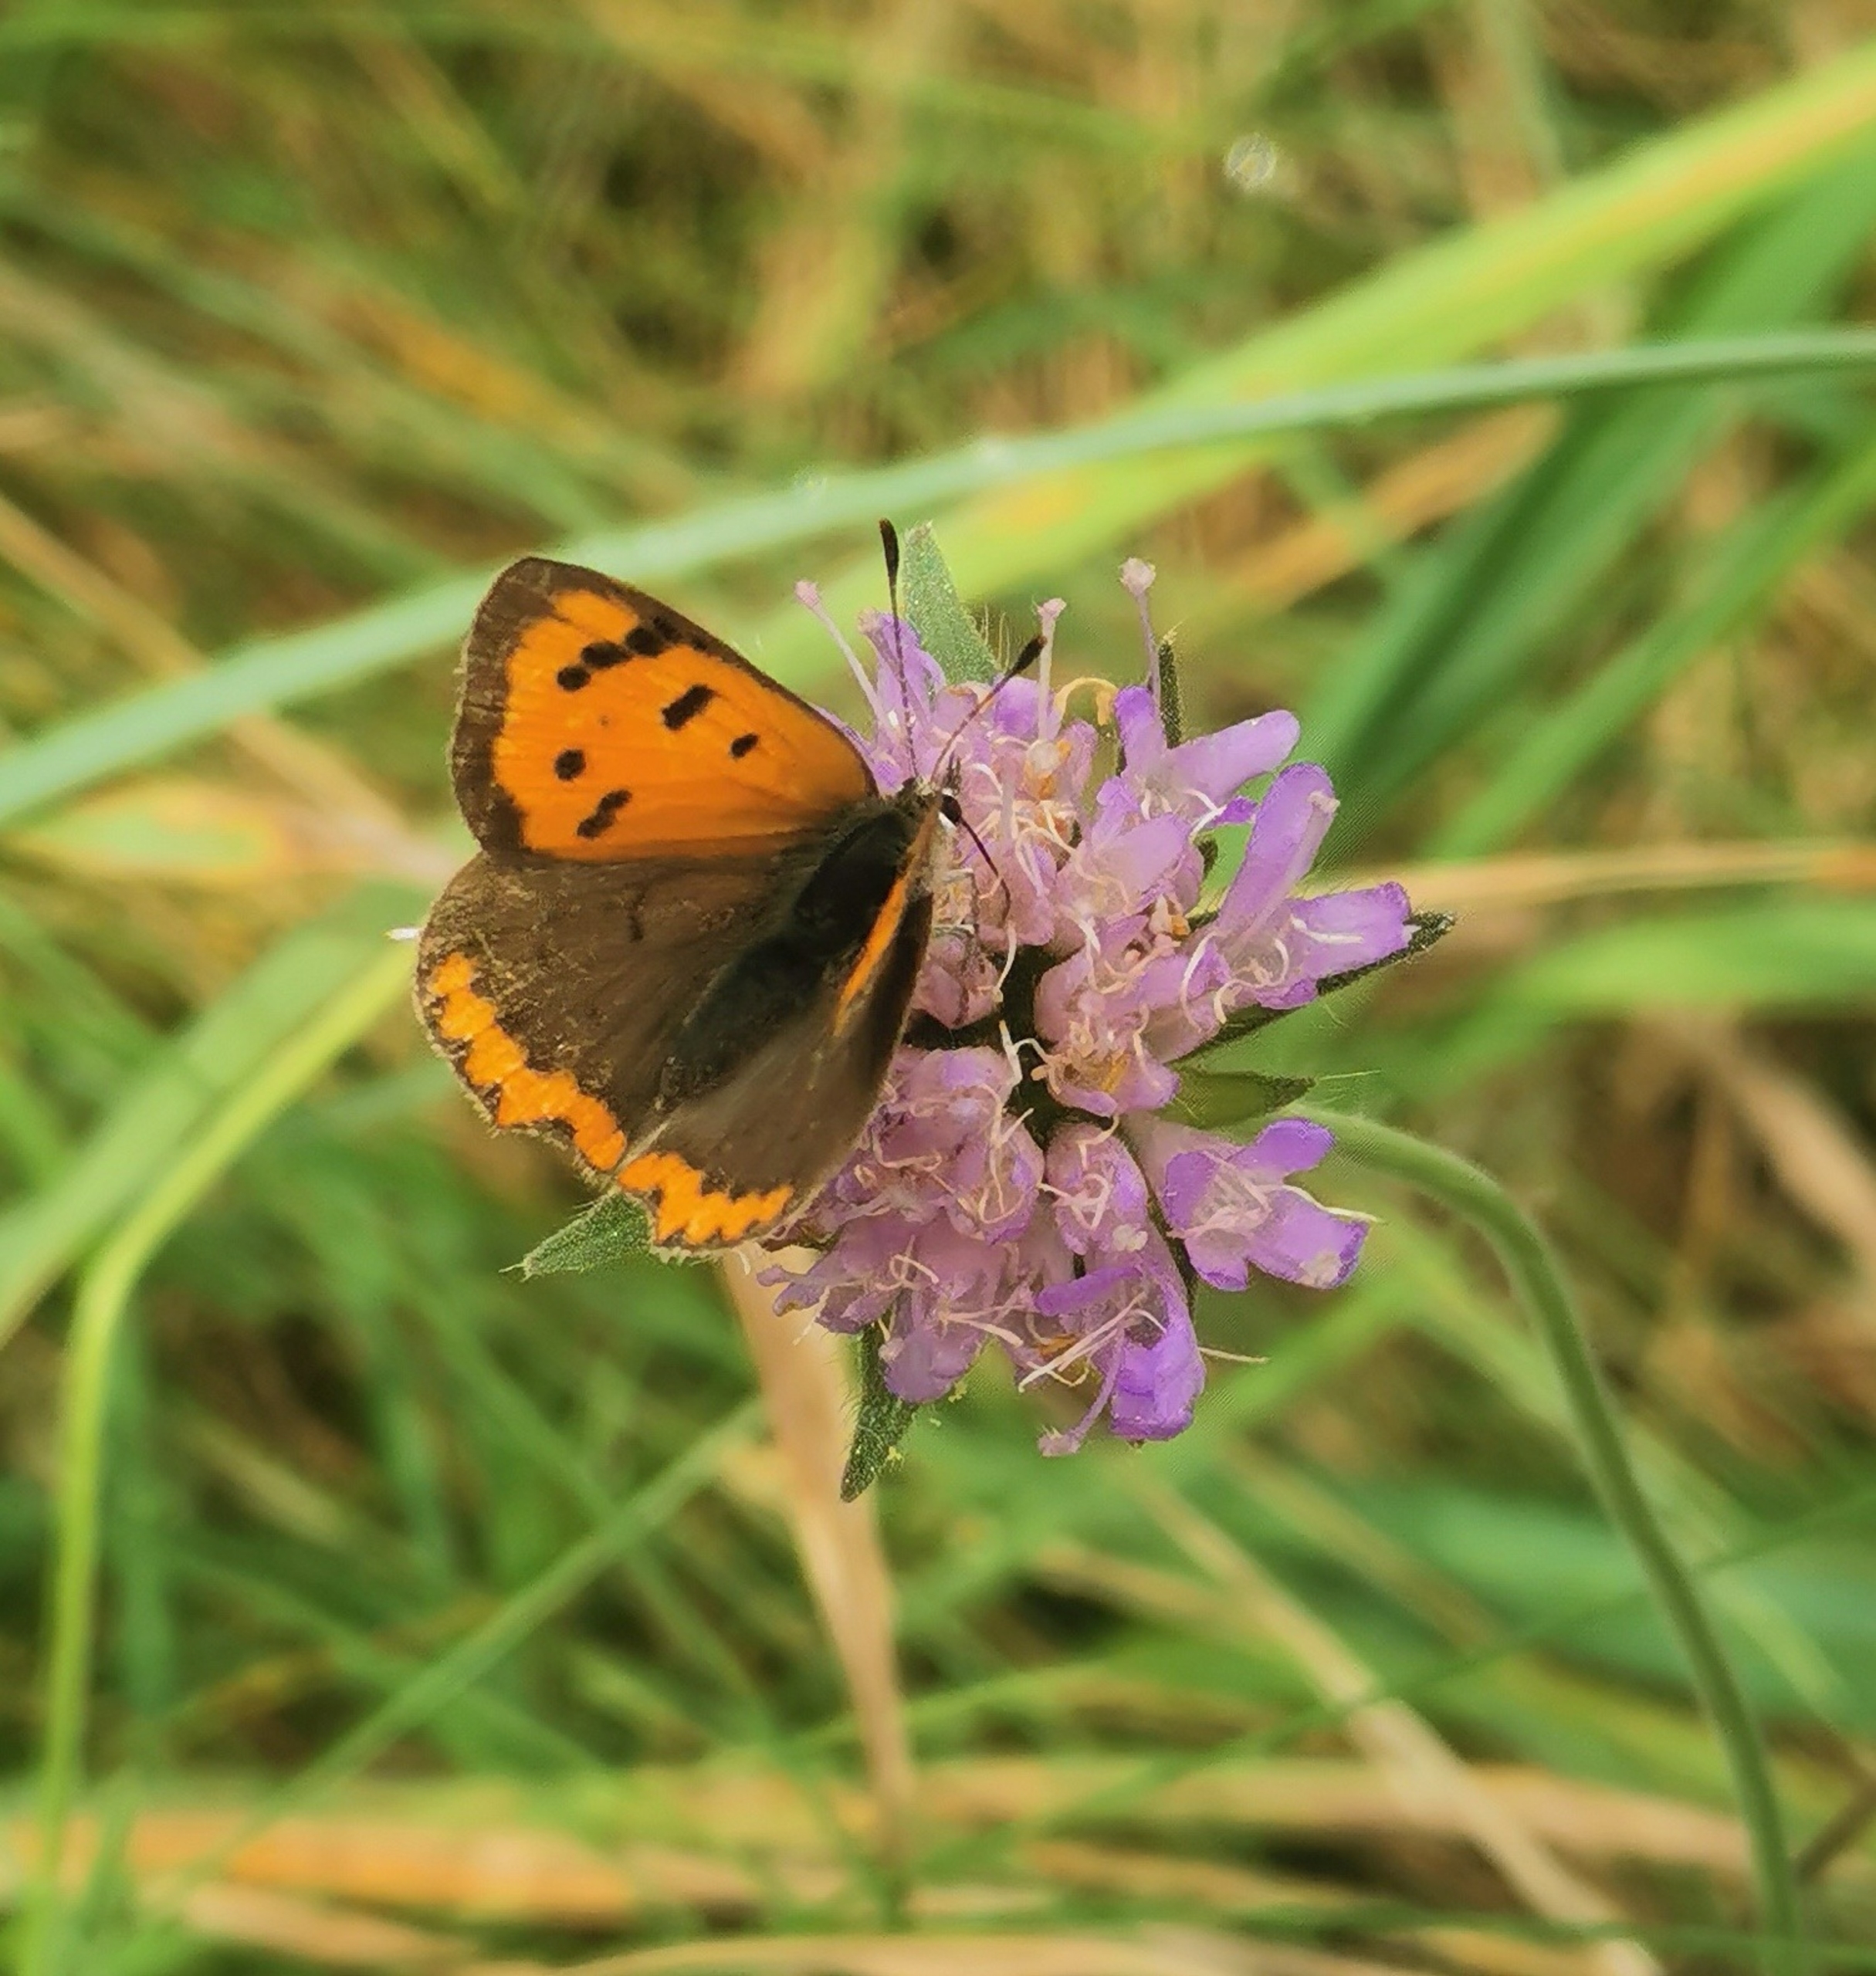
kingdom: Animalia
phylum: Arthropoda
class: Insecta
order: Lepidoptera
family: Lycaenidae
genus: Lycaena
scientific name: Lycaena phlaeas
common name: Lille ildfugl
